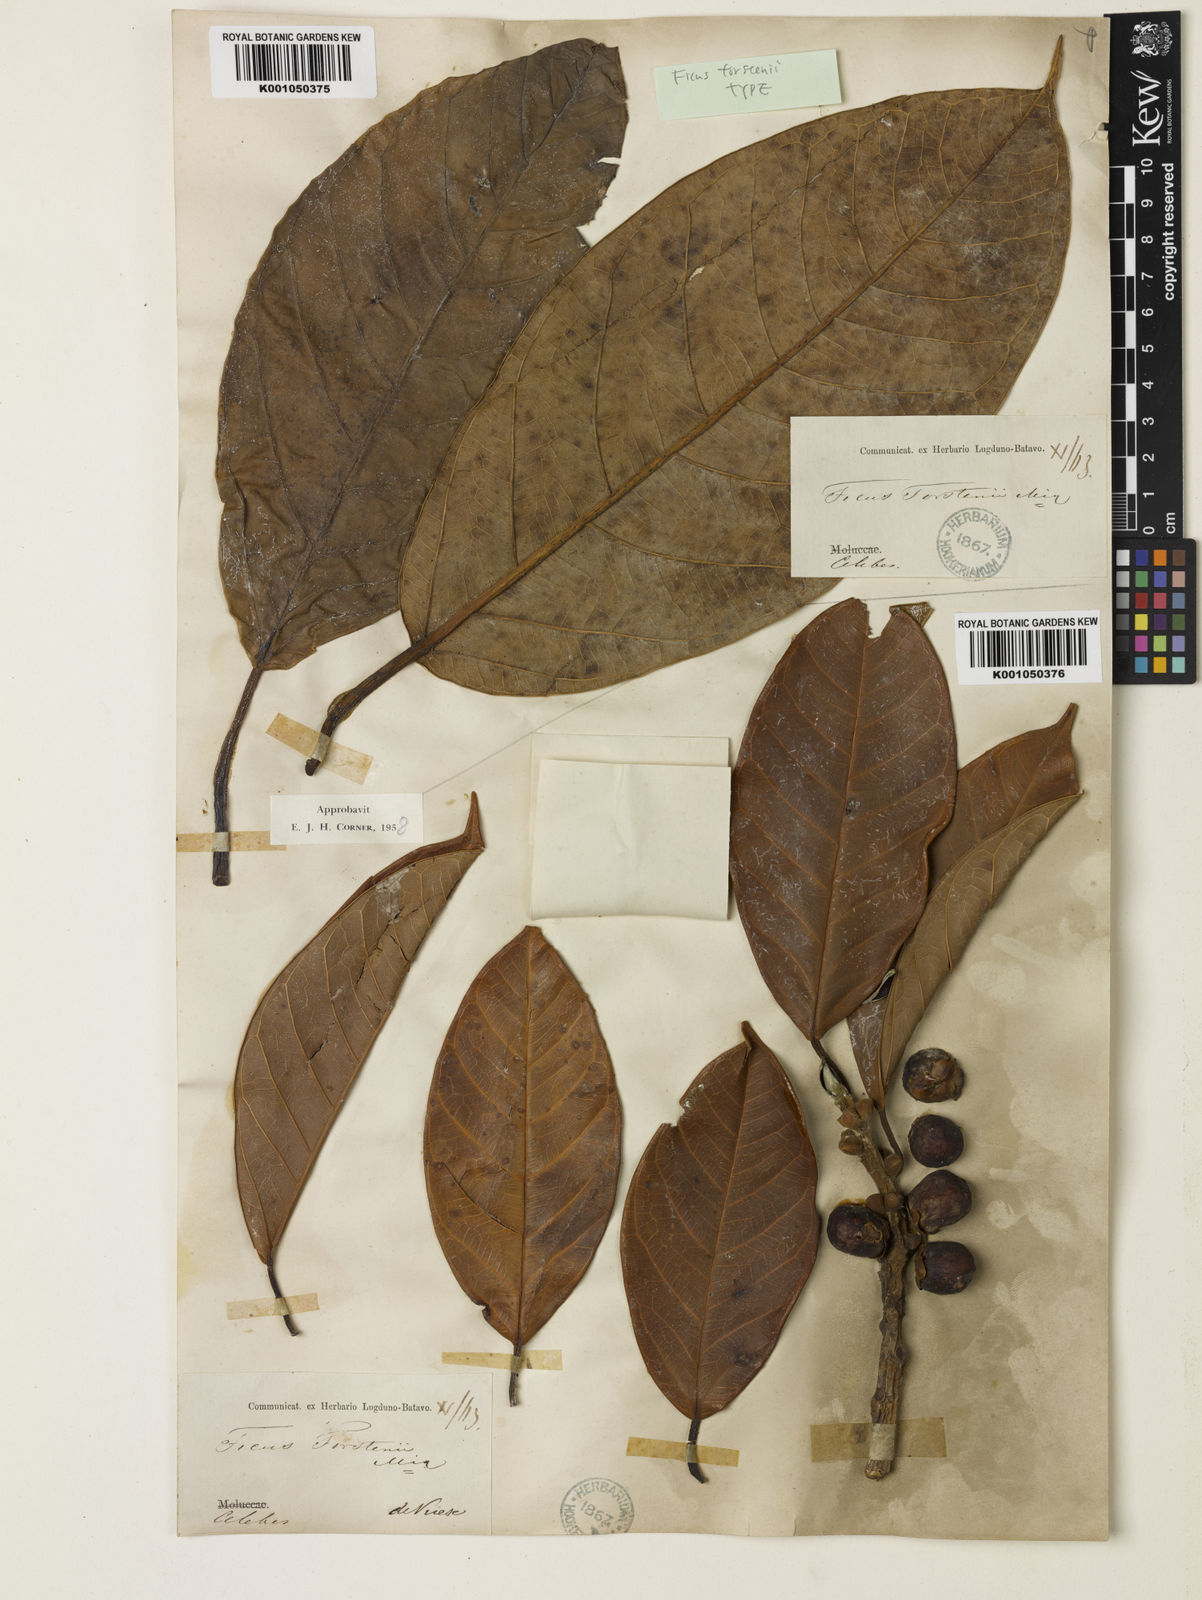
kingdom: Plantae
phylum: Tracheophyta
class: Magnoliopsida
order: Rosales
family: Moraceae
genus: Ficus
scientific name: Ficus forstenii
